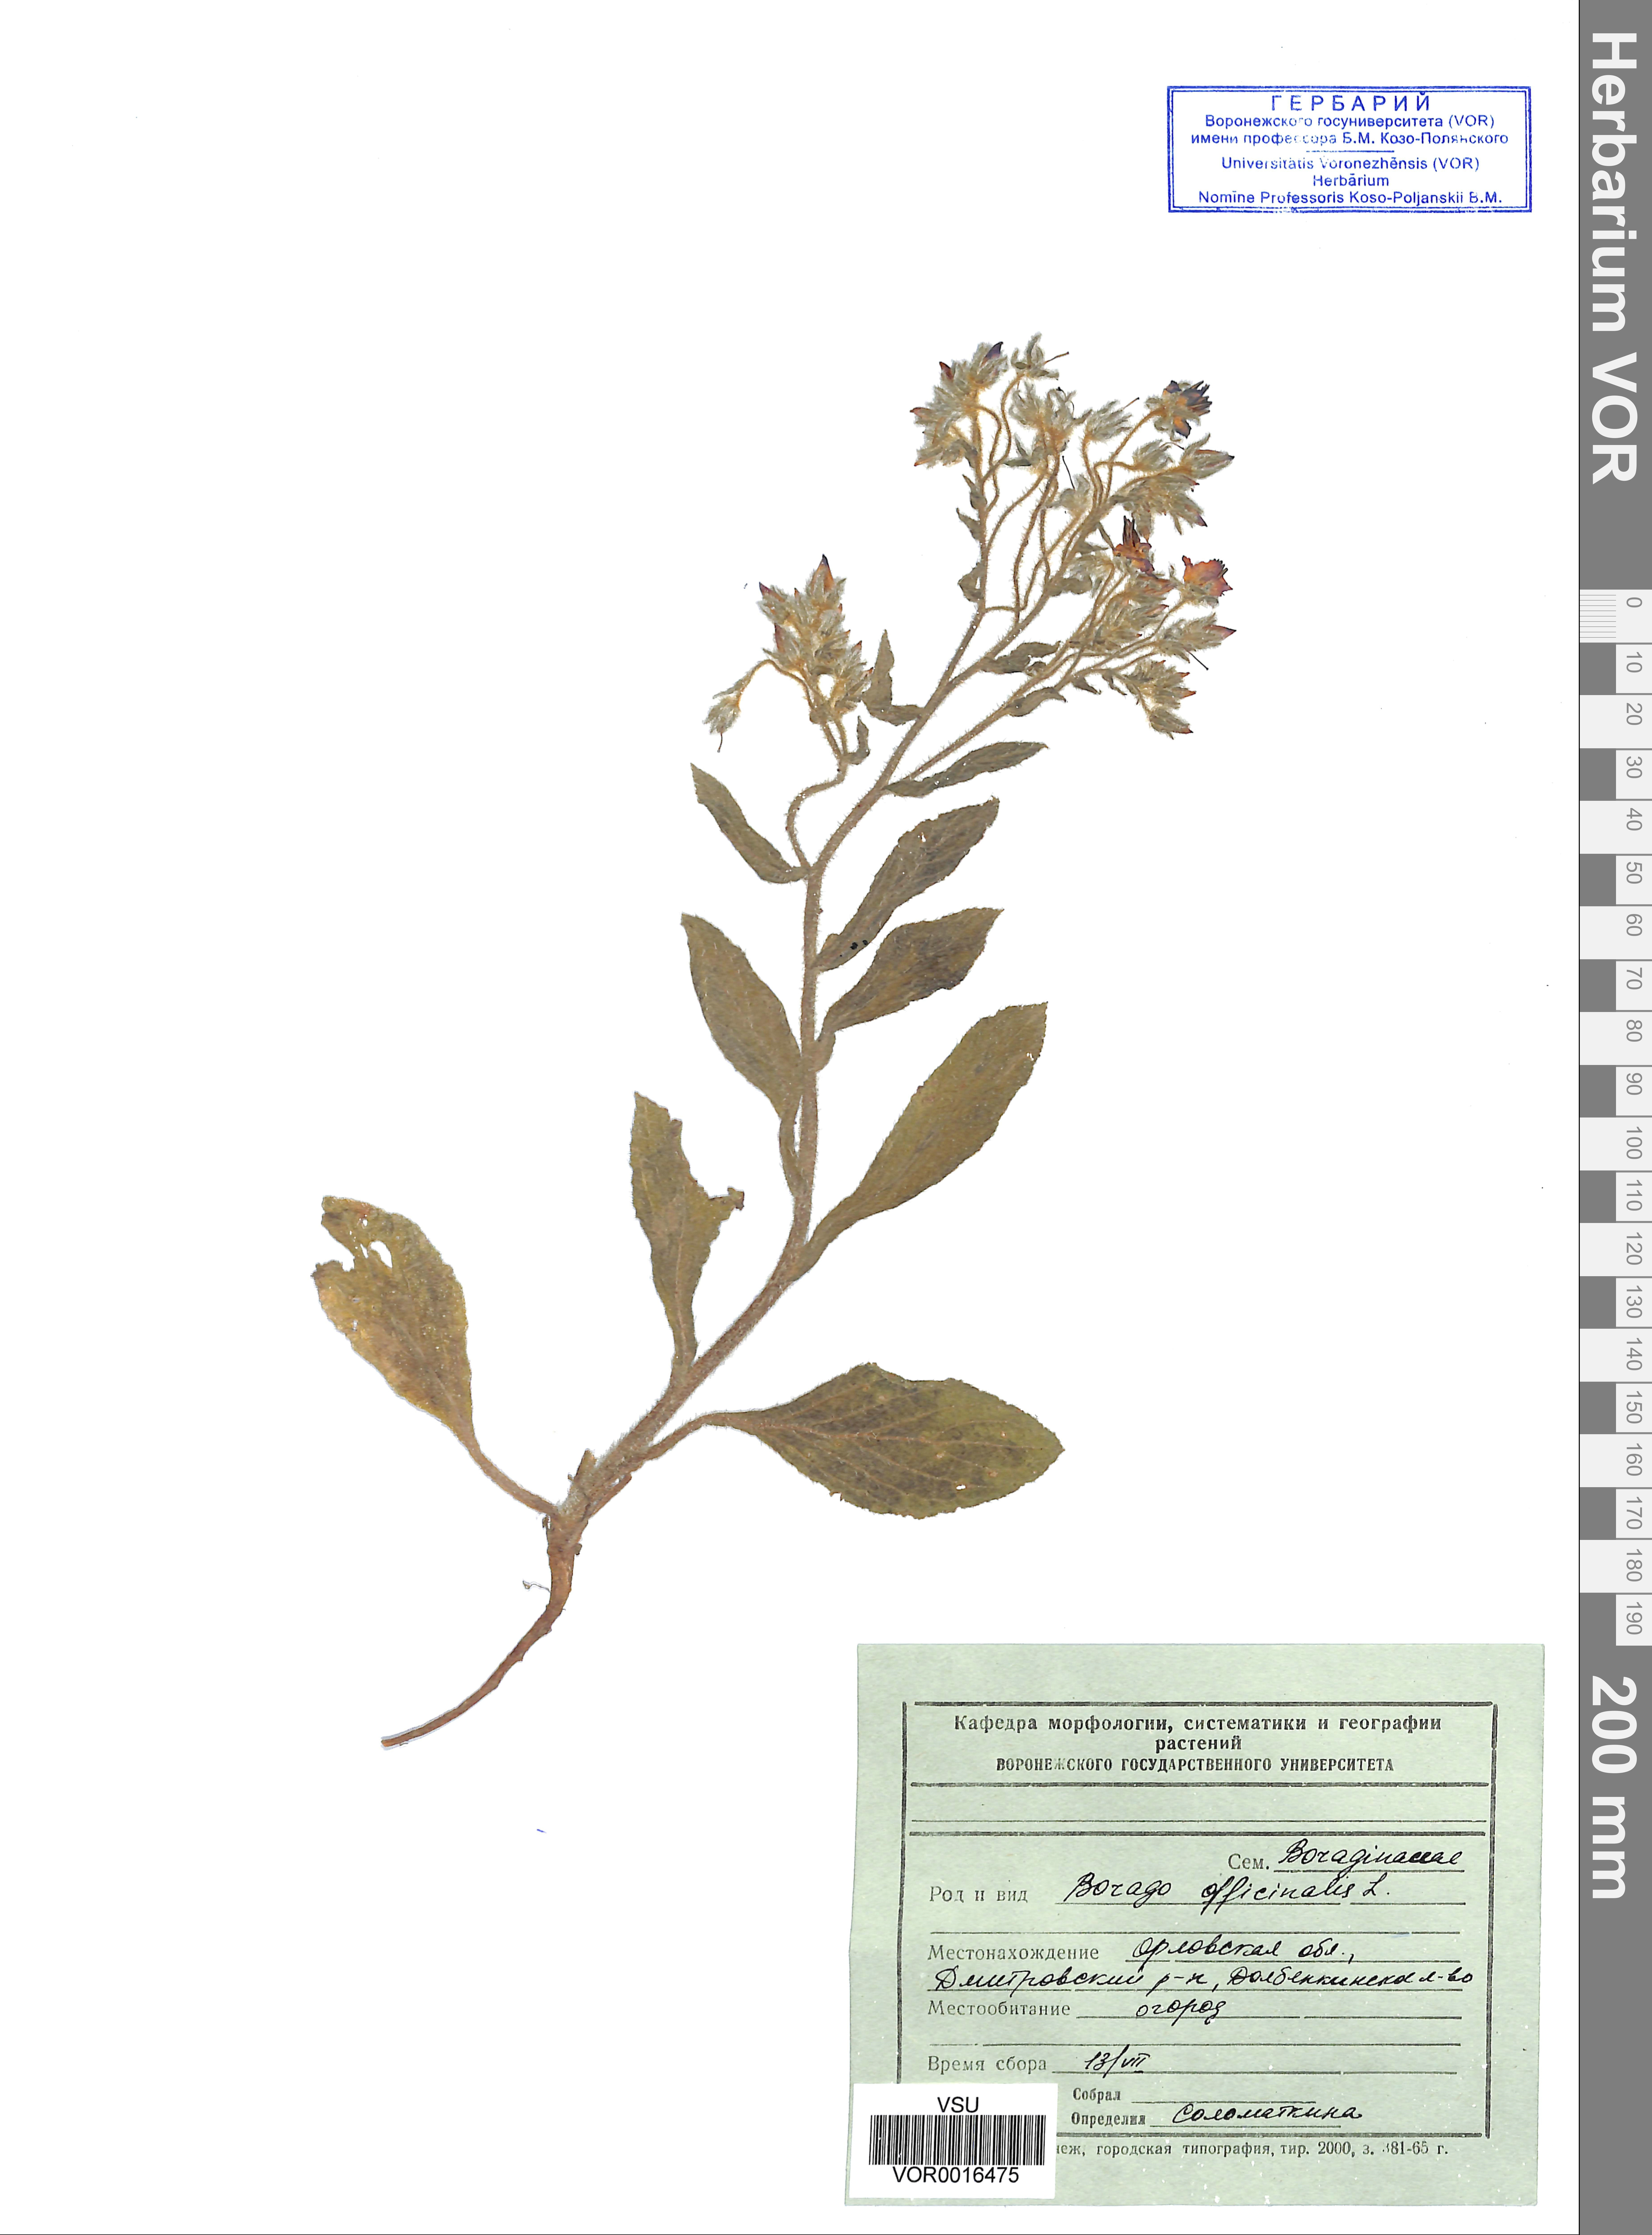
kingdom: Plantae
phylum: Tracheophyta
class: Magnoliopsida
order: Boraginales
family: Boraginaceae
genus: Borago
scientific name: Borago officinalis
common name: Borage
